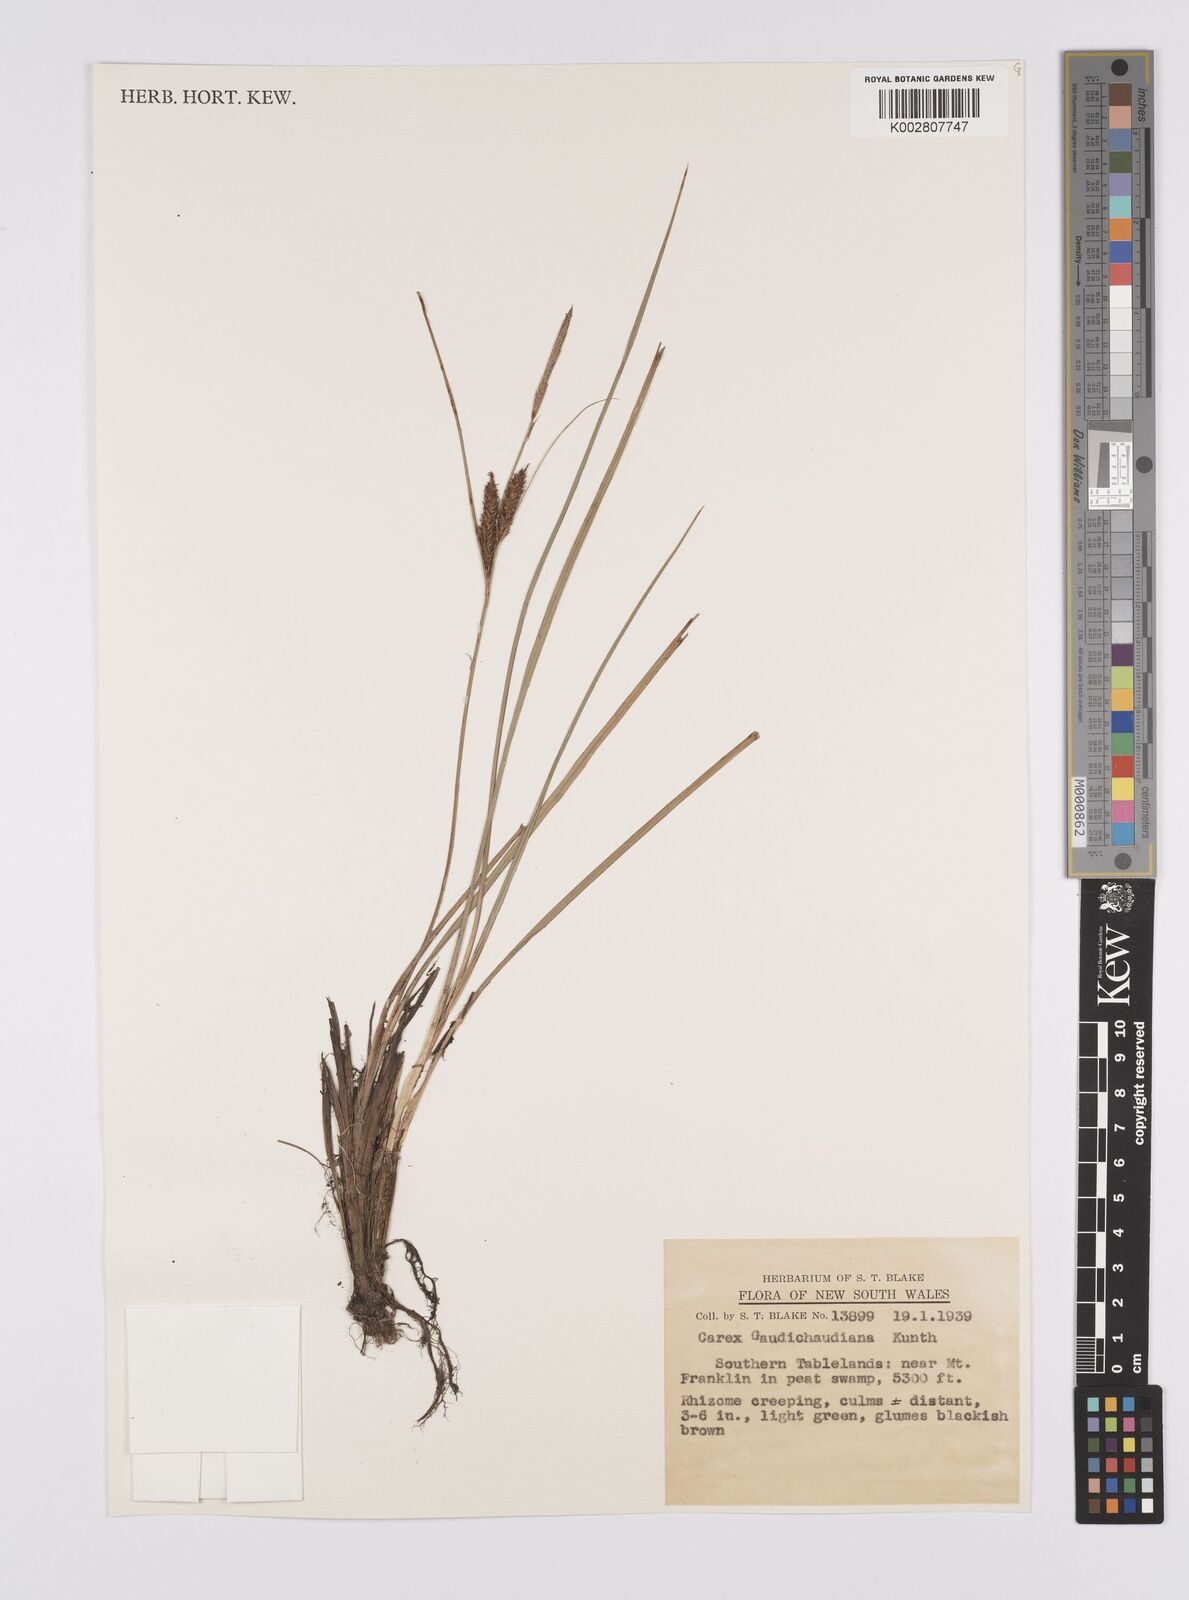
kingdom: Plantae
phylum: Tracheophyta
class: Liliopsida
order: Poales
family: Cyperaceae
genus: Carex
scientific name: Carex gaudichaudiana
